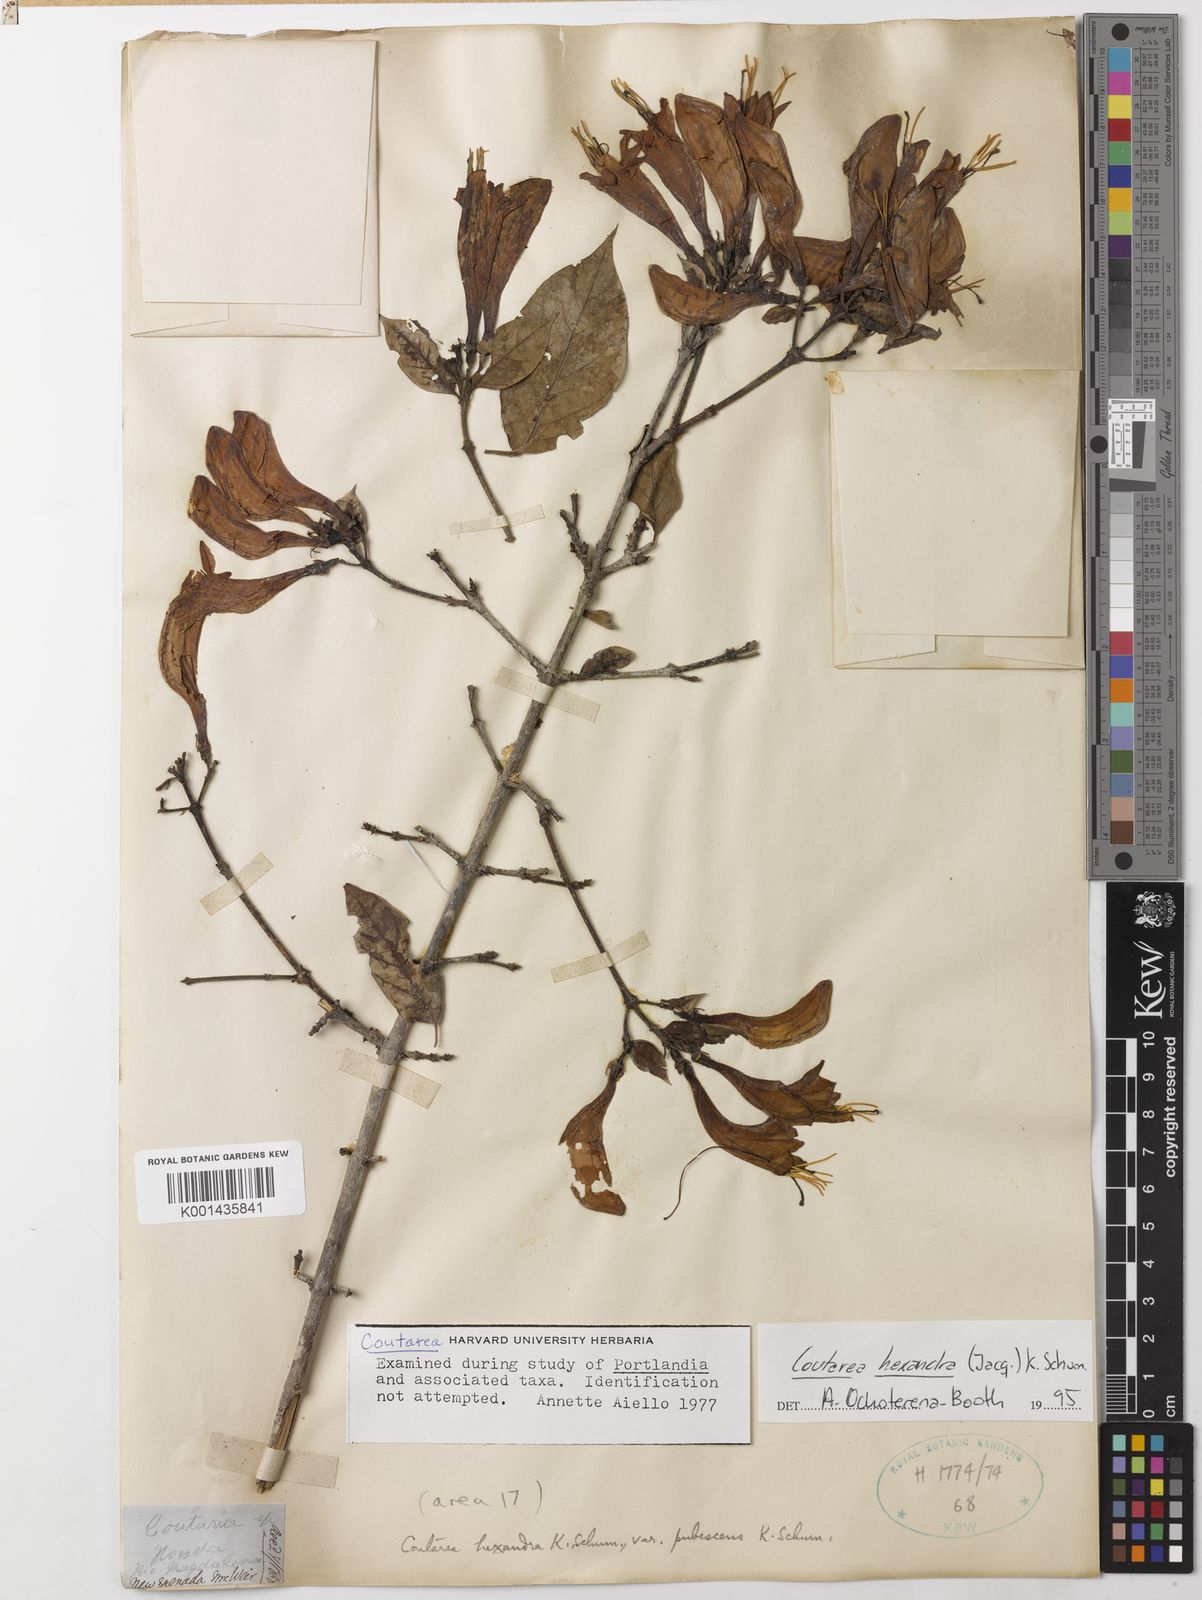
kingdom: Plantae
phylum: Tracheophyta
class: Magnoliopsida
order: Gentianales
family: Rubiaceae
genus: Coutarea
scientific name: Coutarea hexandra
